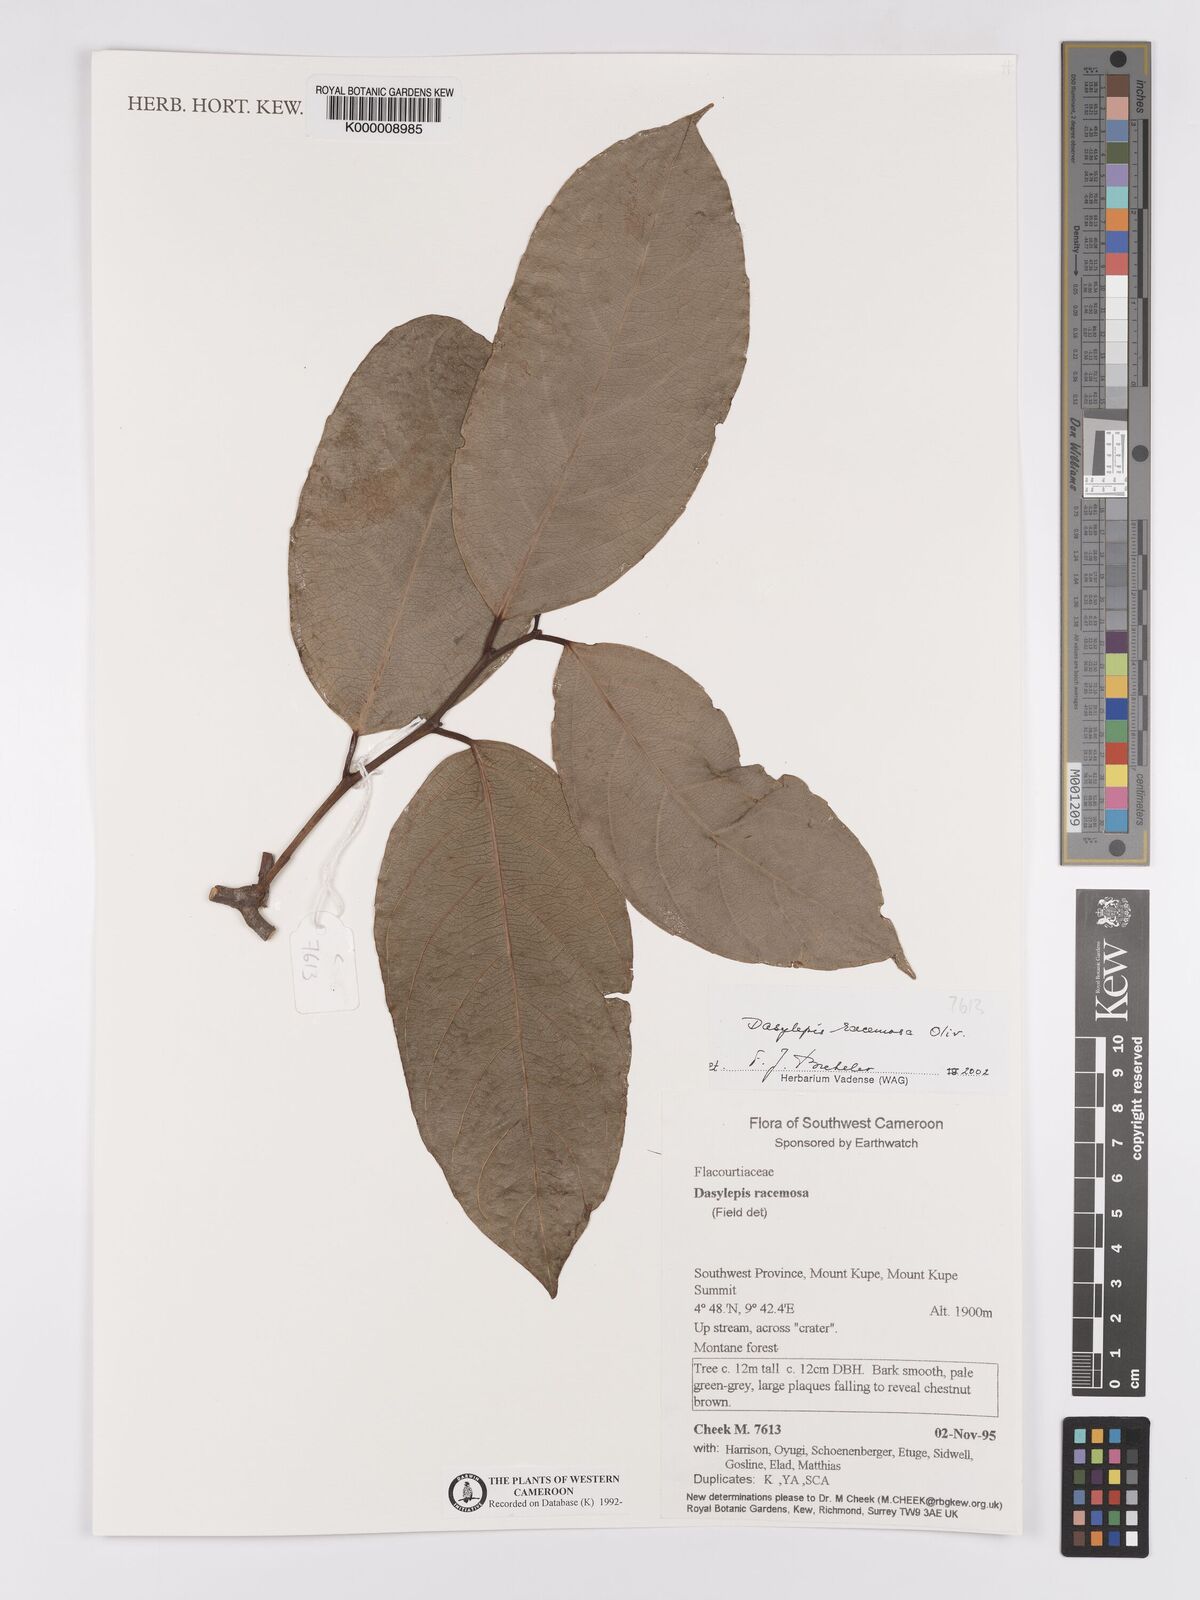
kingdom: Plantae
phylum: Tracheophyta
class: Magnoliopsida
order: Malpighiales
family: Achariaceae
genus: Dasylepis
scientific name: Dasylepis racemosa
